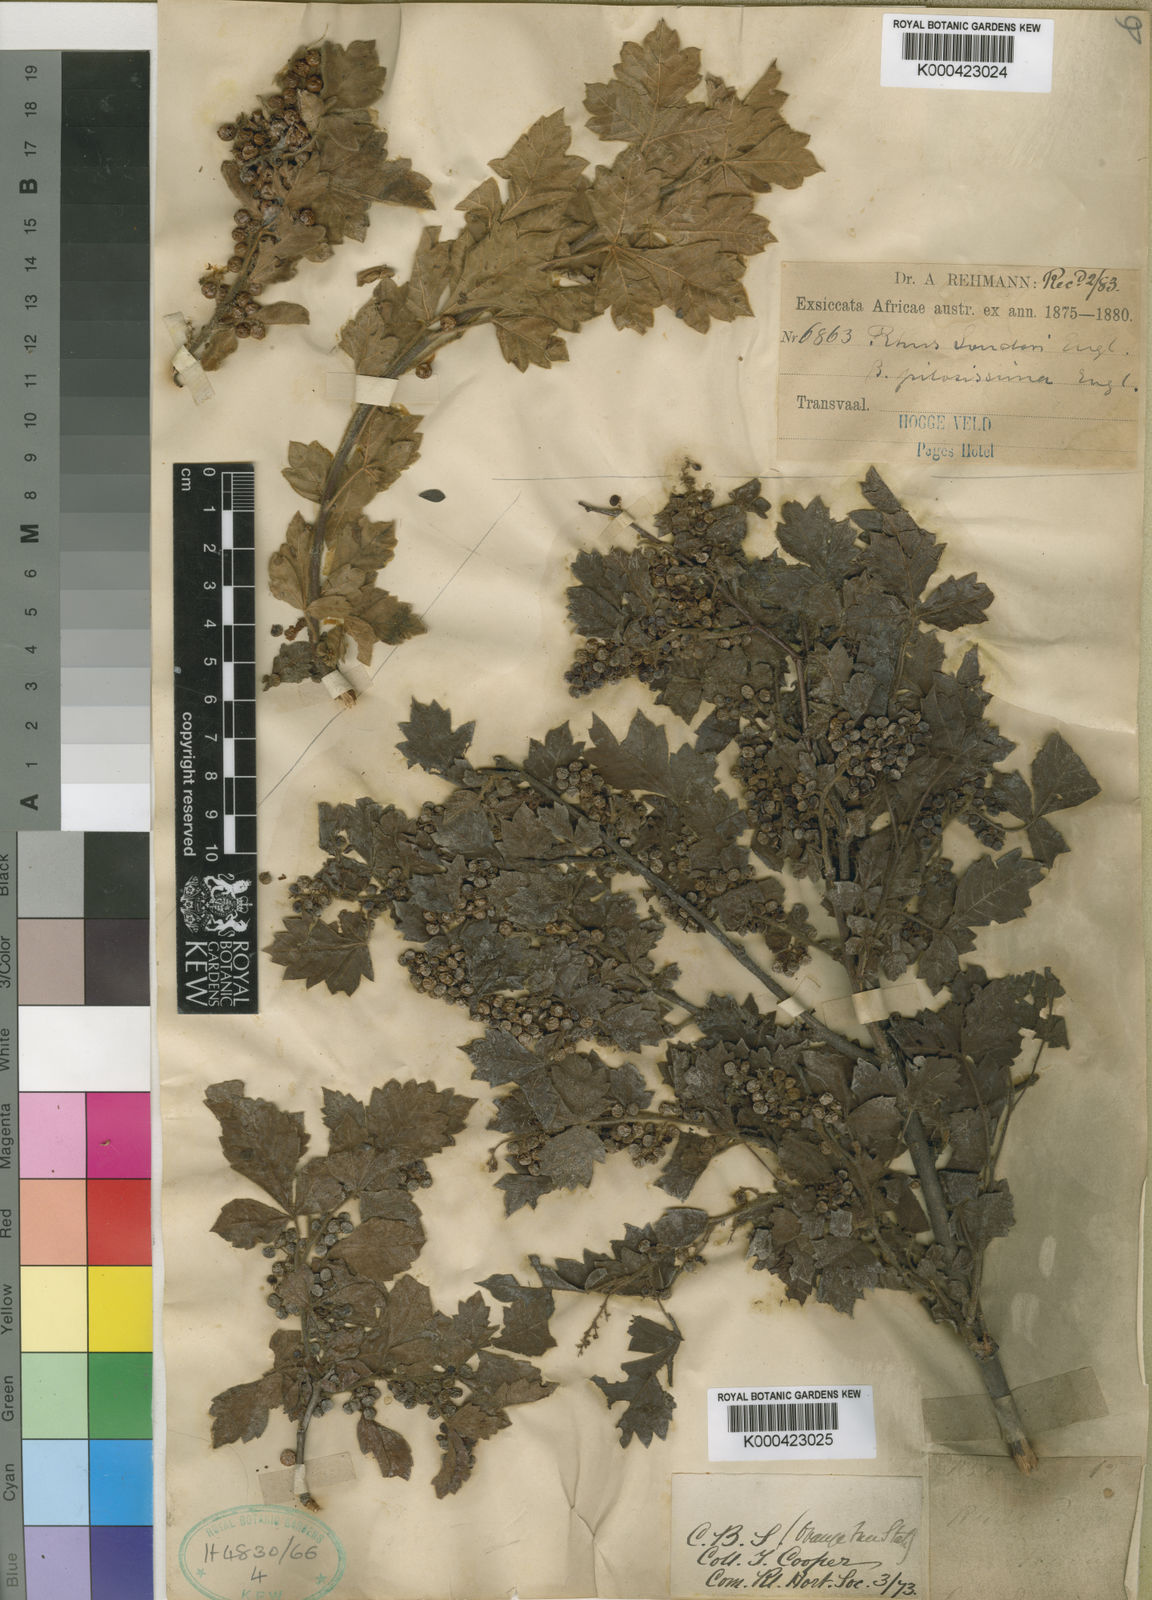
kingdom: Plantae
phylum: Tracheophyta
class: Magnoliopsida
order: Sapindales
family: Anacardiaceae
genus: Searsia
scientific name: Searsia dentata
